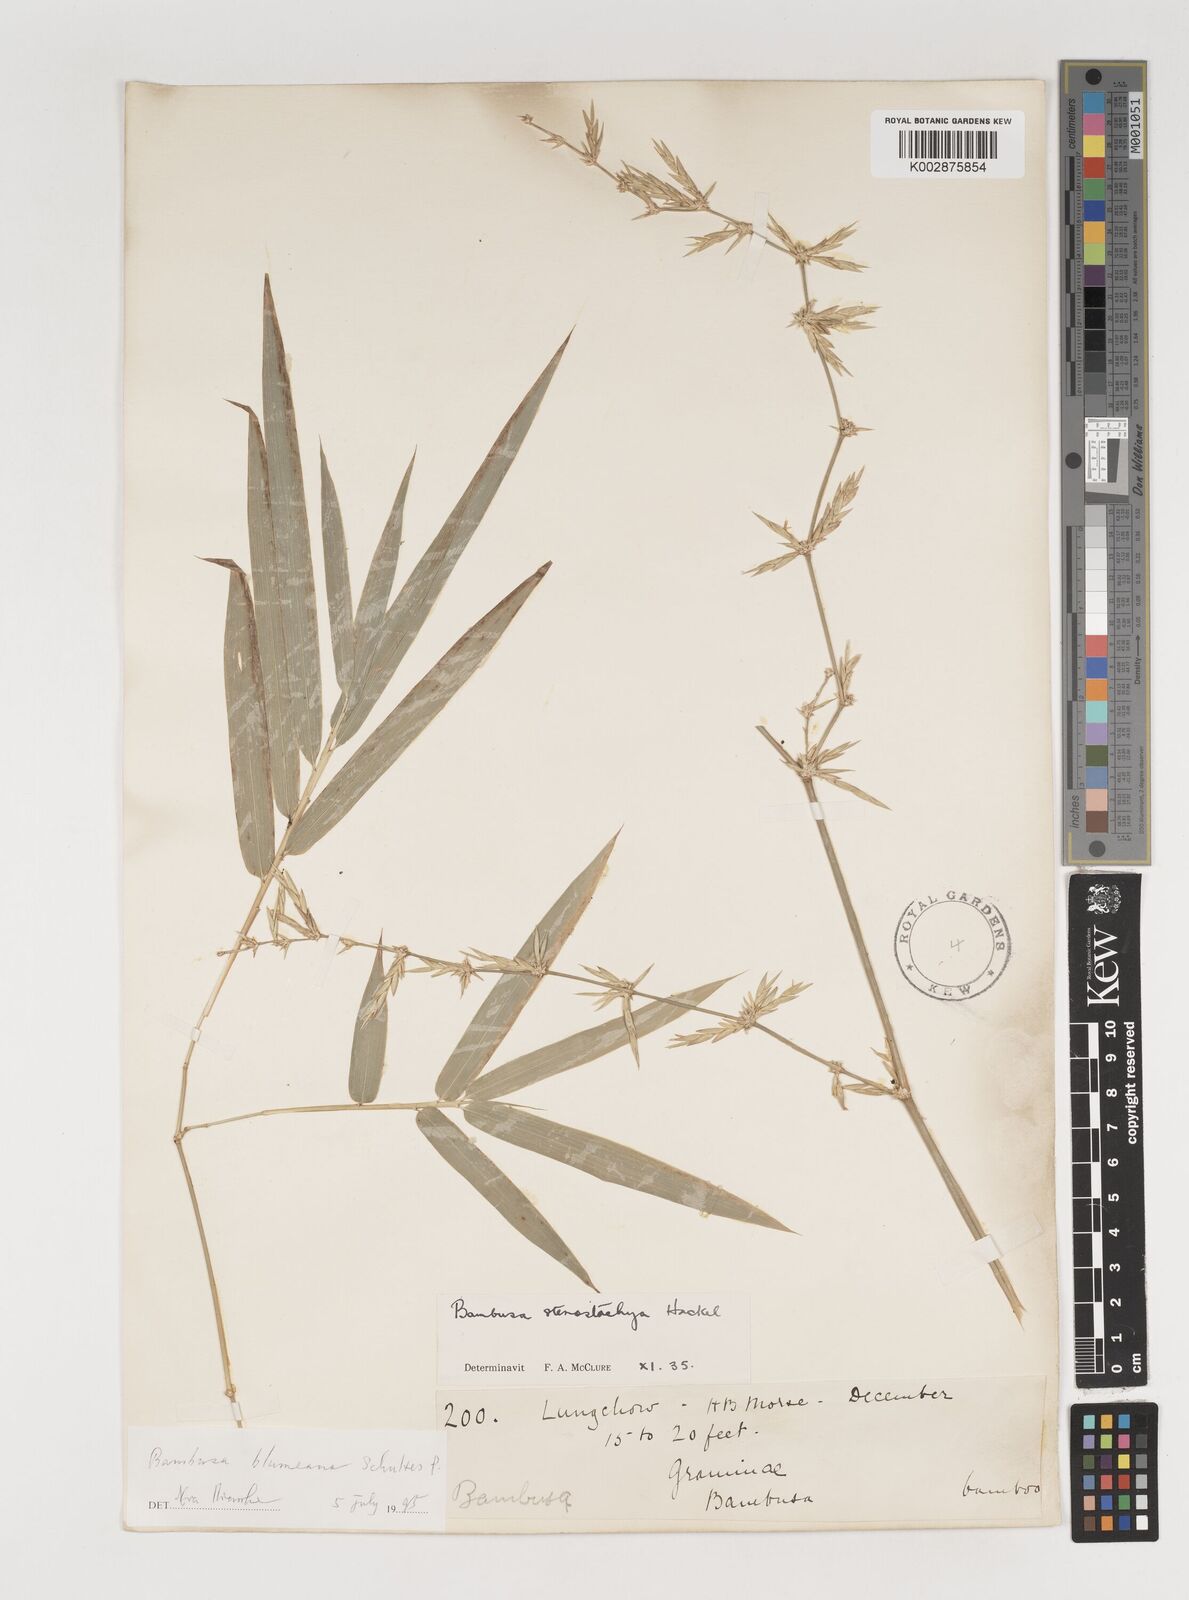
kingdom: Plantae
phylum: Tracheophyta
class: Liliopsida
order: Poales
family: Poaceae
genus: Bambusa
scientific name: Bambusa spinosa
